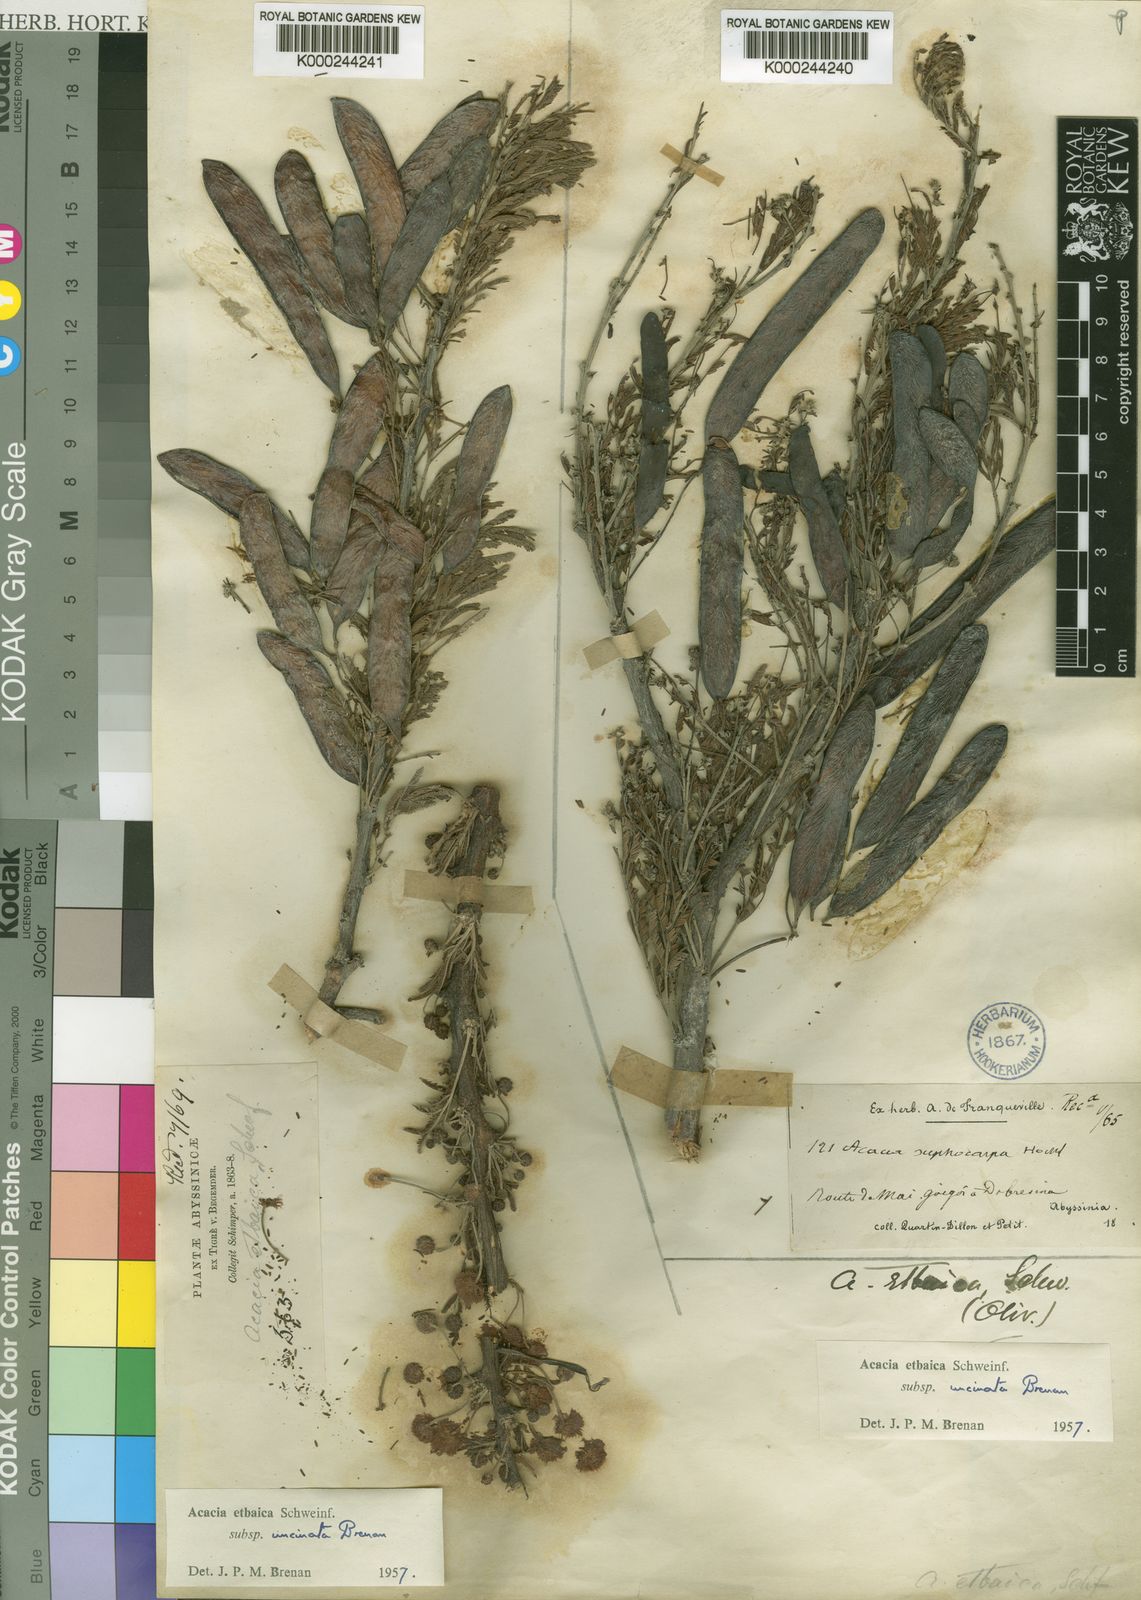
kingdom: Plantae
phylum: Tracheophyta
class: Magnoliopsida
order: Fabales
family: Fabaceae
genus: Vachellia
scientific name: Vachellia etbaica
